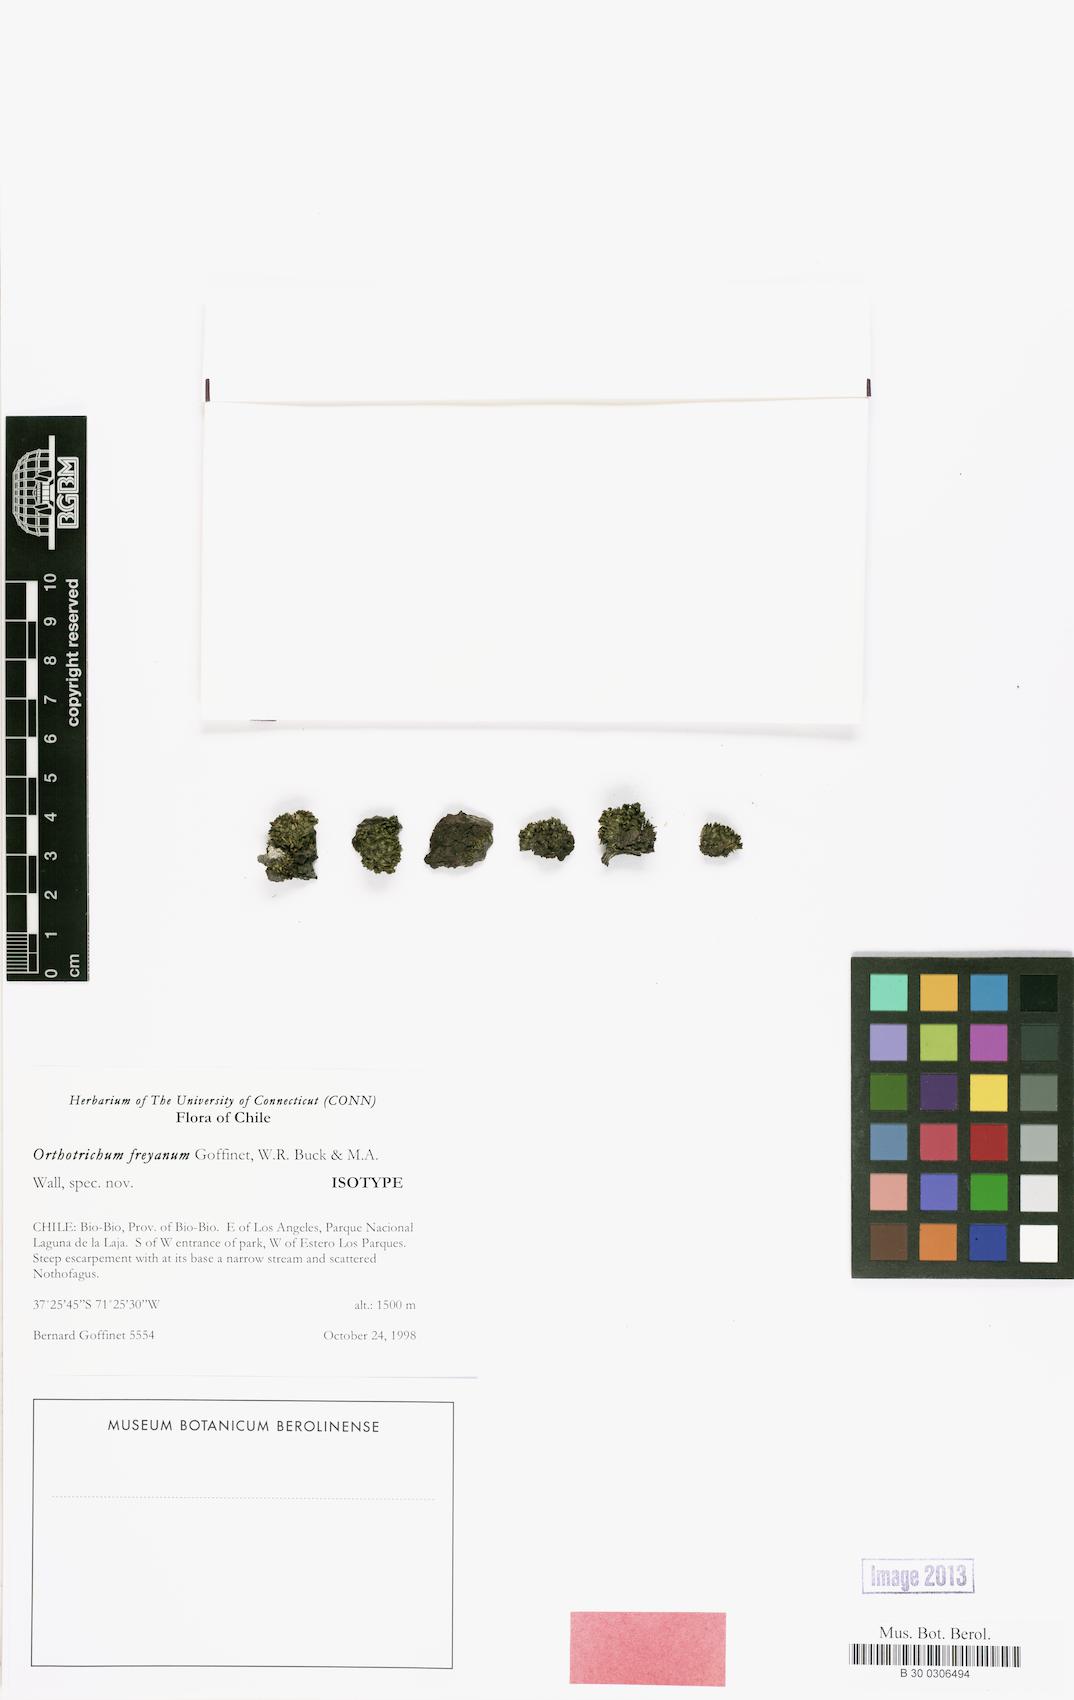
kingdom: Plantae
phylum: Bryophyta
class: Bryopsida
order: Orthotrichales
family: Orthotrichaceae
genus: Orthotrichum
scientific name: Orthotrichum freyanum
